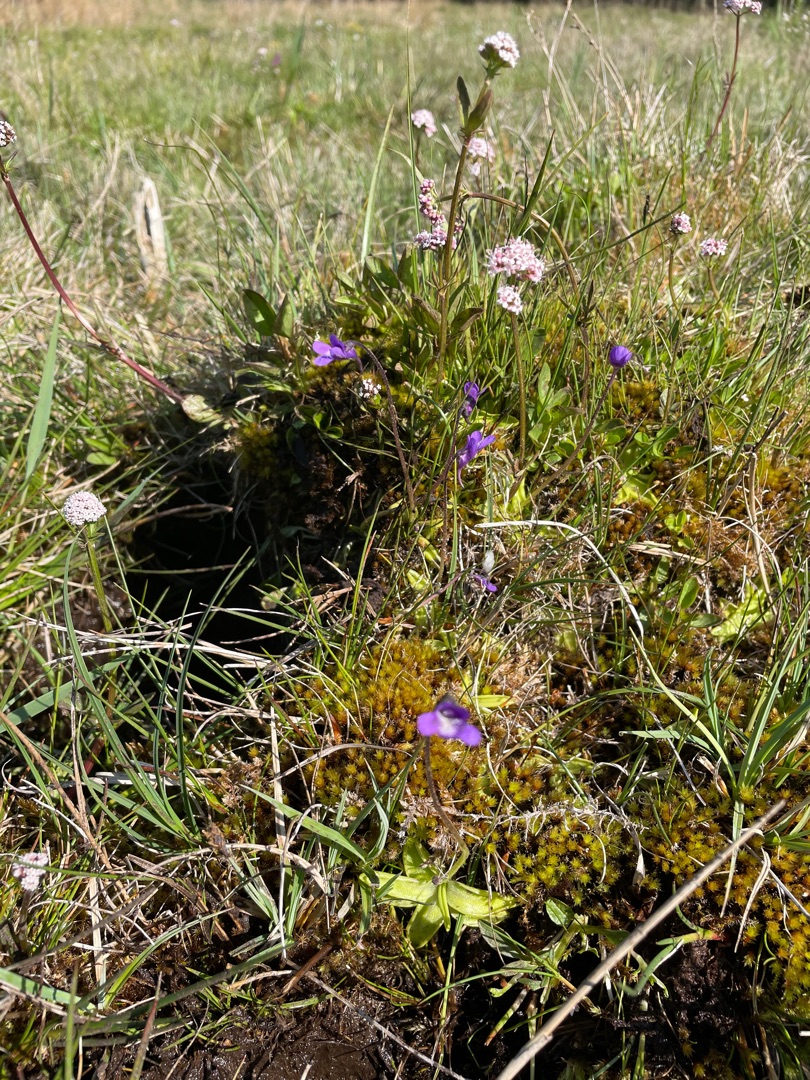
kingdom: Plantae
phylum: Tracheophyta
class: Magnoliopsida
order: Lamiales
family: Lentibulariaceae
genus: Pinguicula
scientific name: Pinguicula vulgaris
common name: Vibefedt
